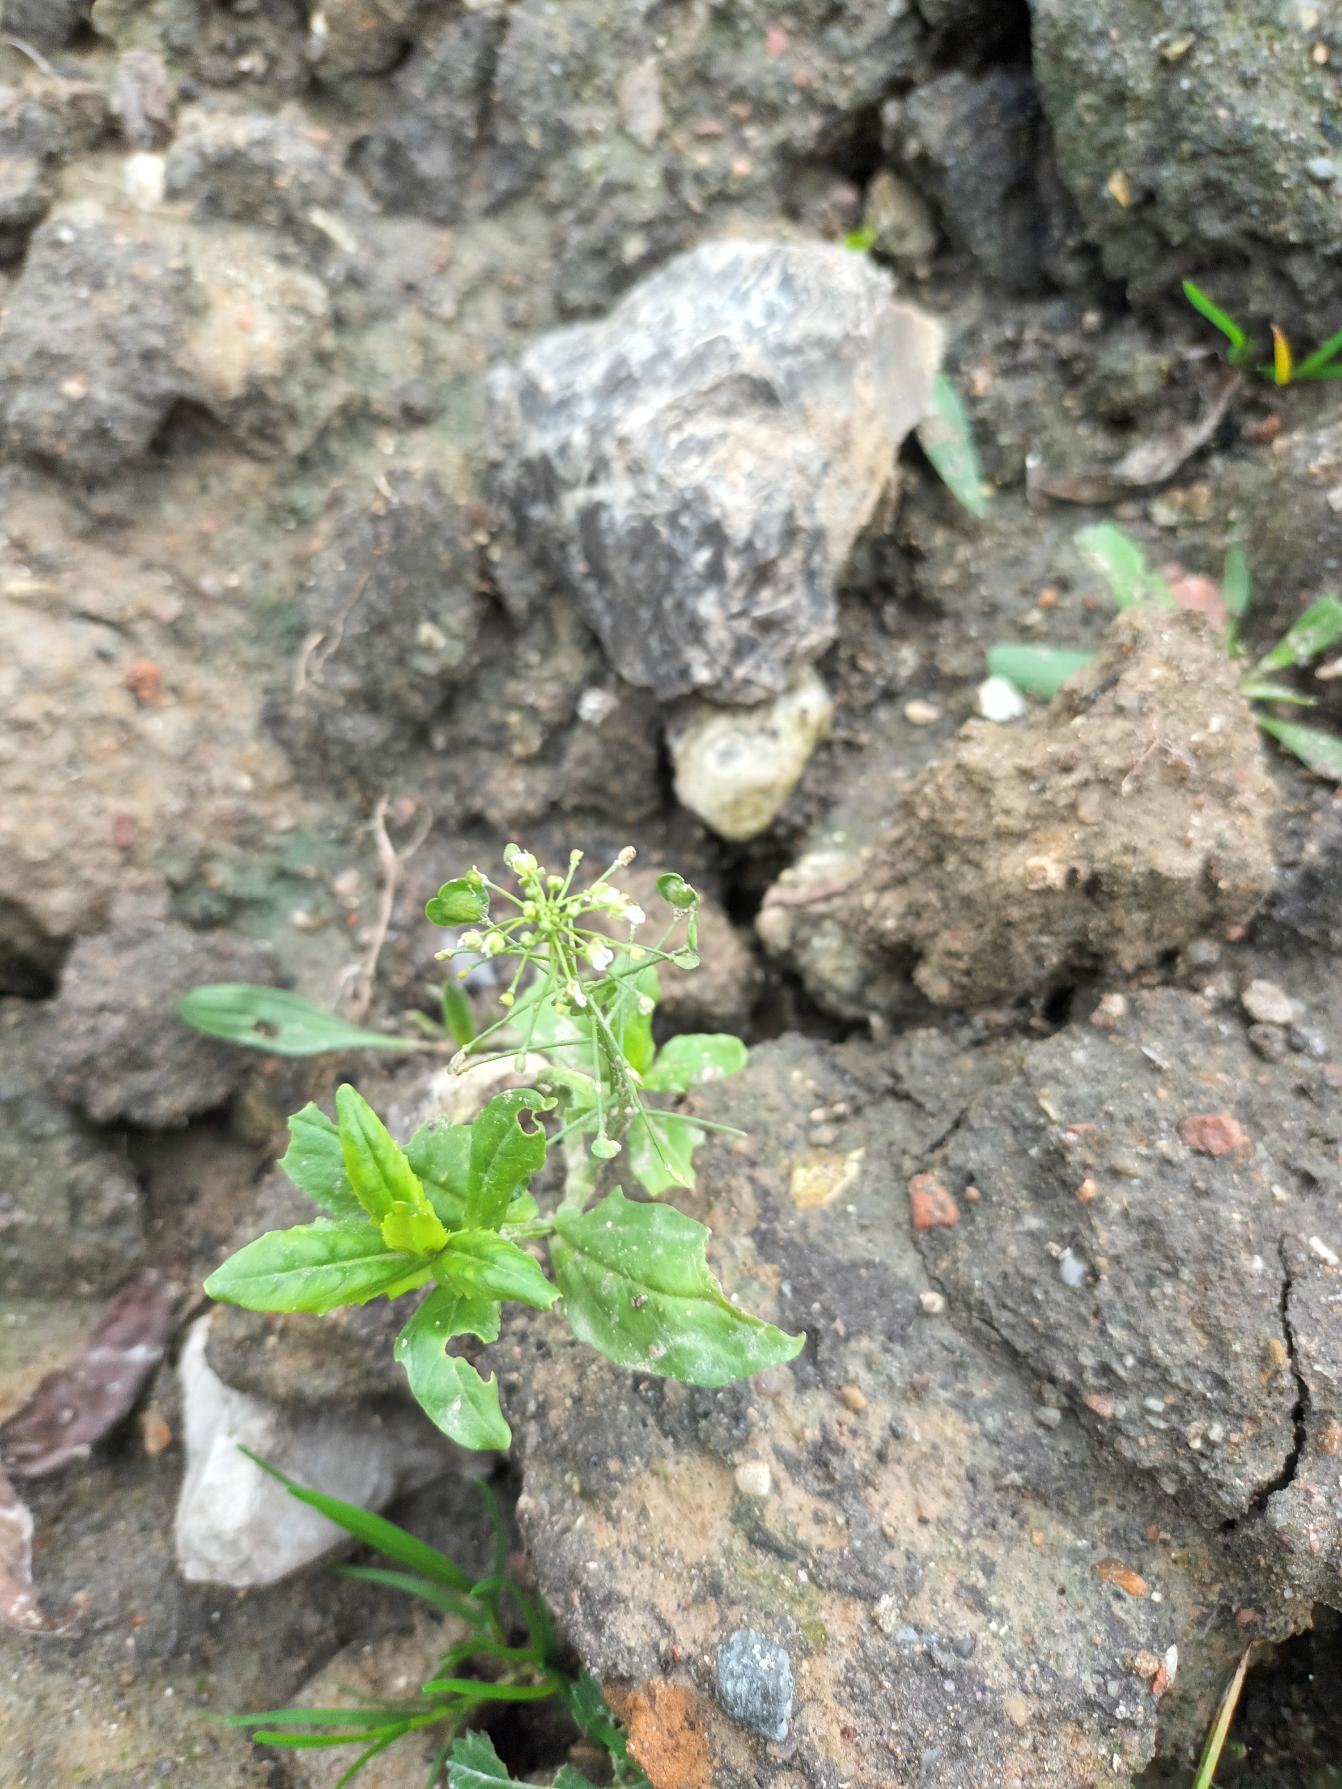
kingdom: Plantae
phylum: Tracheophyta
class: Magnoliopsida
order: Brassicales
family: Brassicaceae
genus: Thlaspi
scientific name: Thlaspi arvense
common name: Almindelig pengeurt
